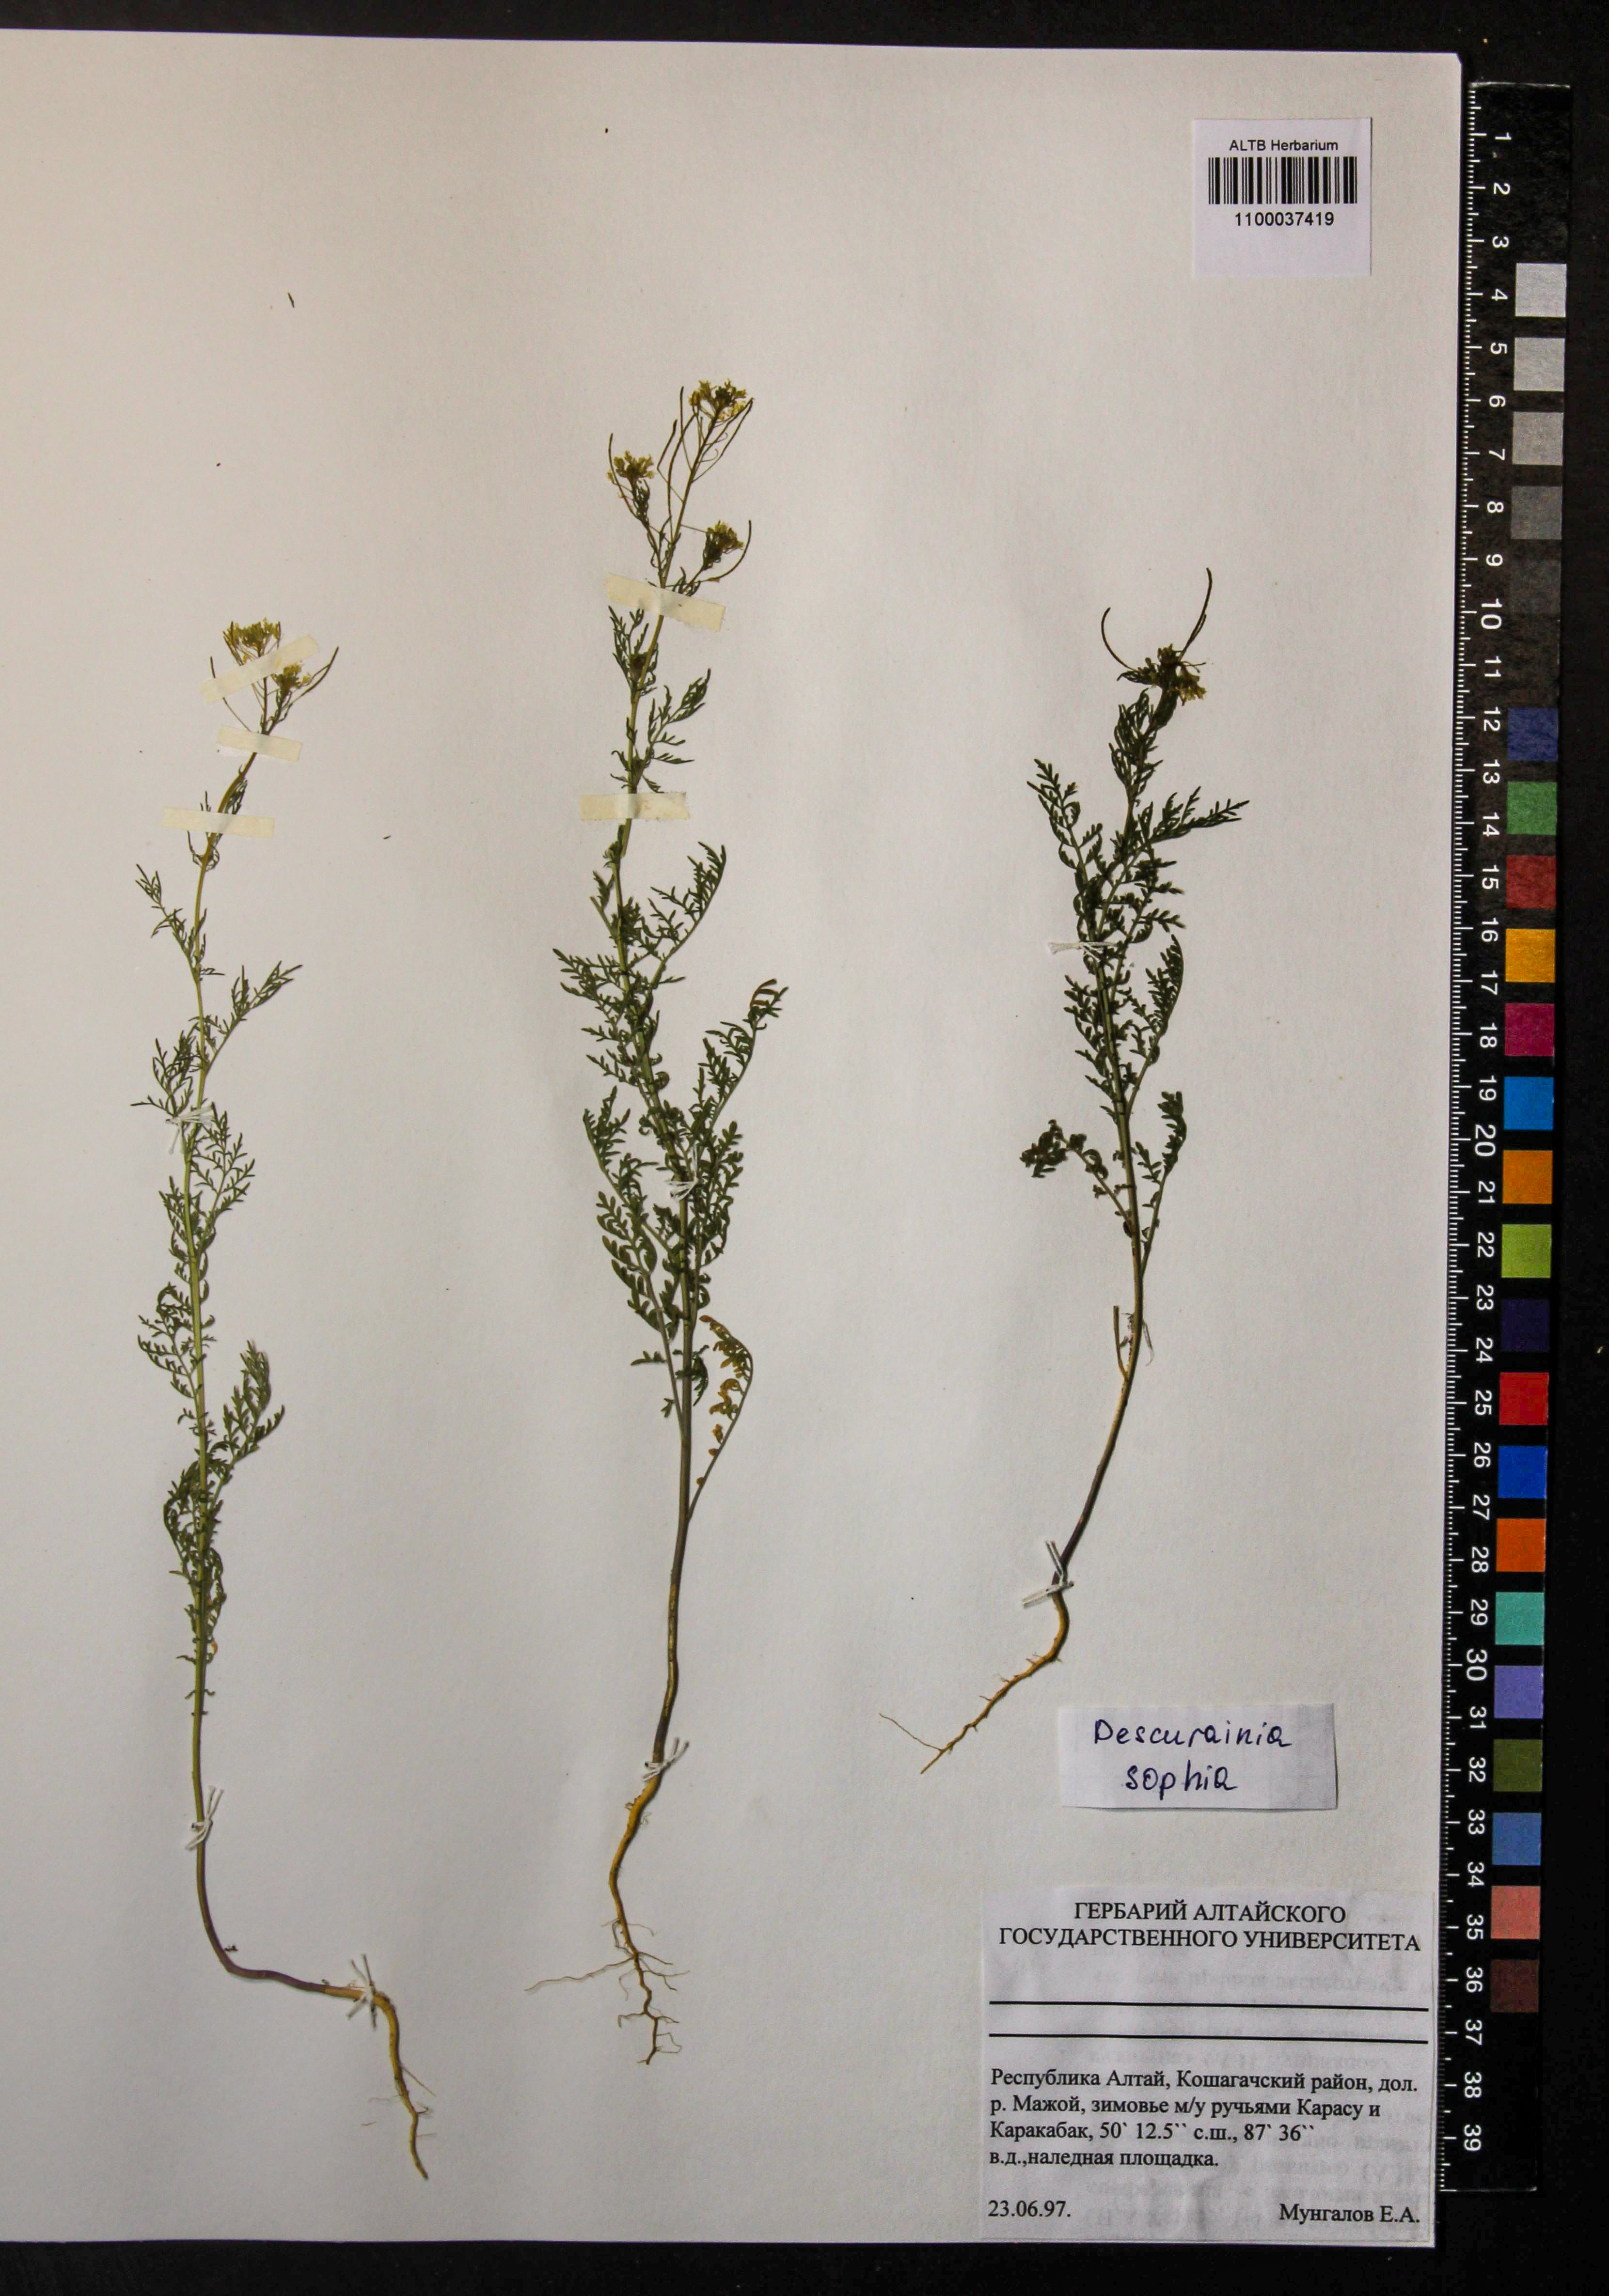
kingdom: Plantae
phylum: Tracheophyta
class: Magnoliopsida
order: Brassicales
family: Brassicaceae
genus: Descurainia
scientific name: Descurainia sophia
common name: Flixweed
